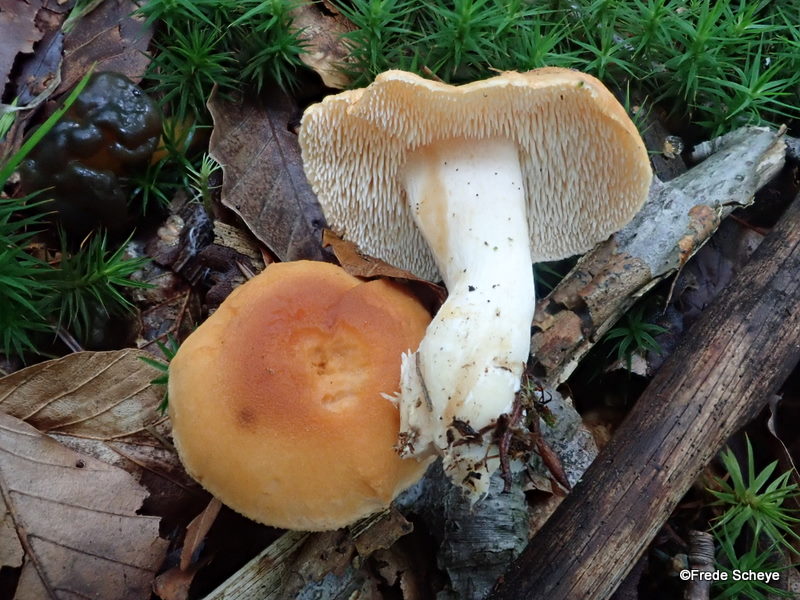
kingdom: Fungi
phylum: Basidiomycota
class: Agaricomycetes
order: Cantharellales
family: Hydnaceae
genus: Hydnum
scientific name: Hydnum repandum
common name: almindelig pigsvamp
